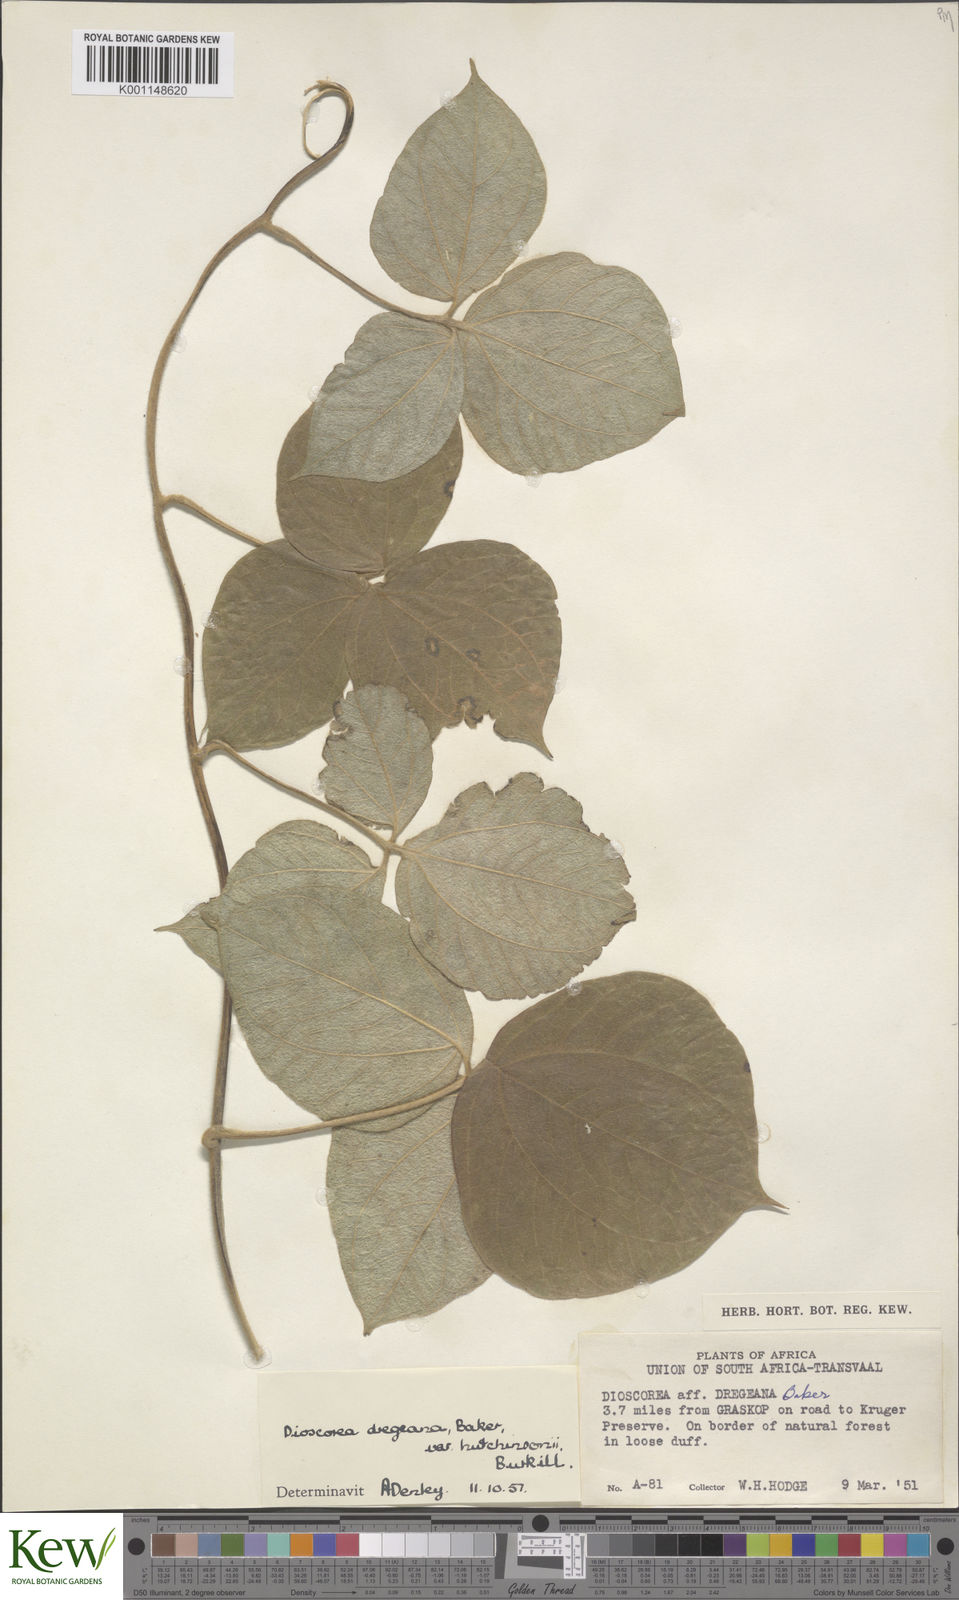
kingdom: Plantae
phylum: Tracheophyta
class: Liliopsida
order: Dioscoreales
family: Dioscoreaceae
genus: Dioscorea
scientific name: Dioscorea dregeana
